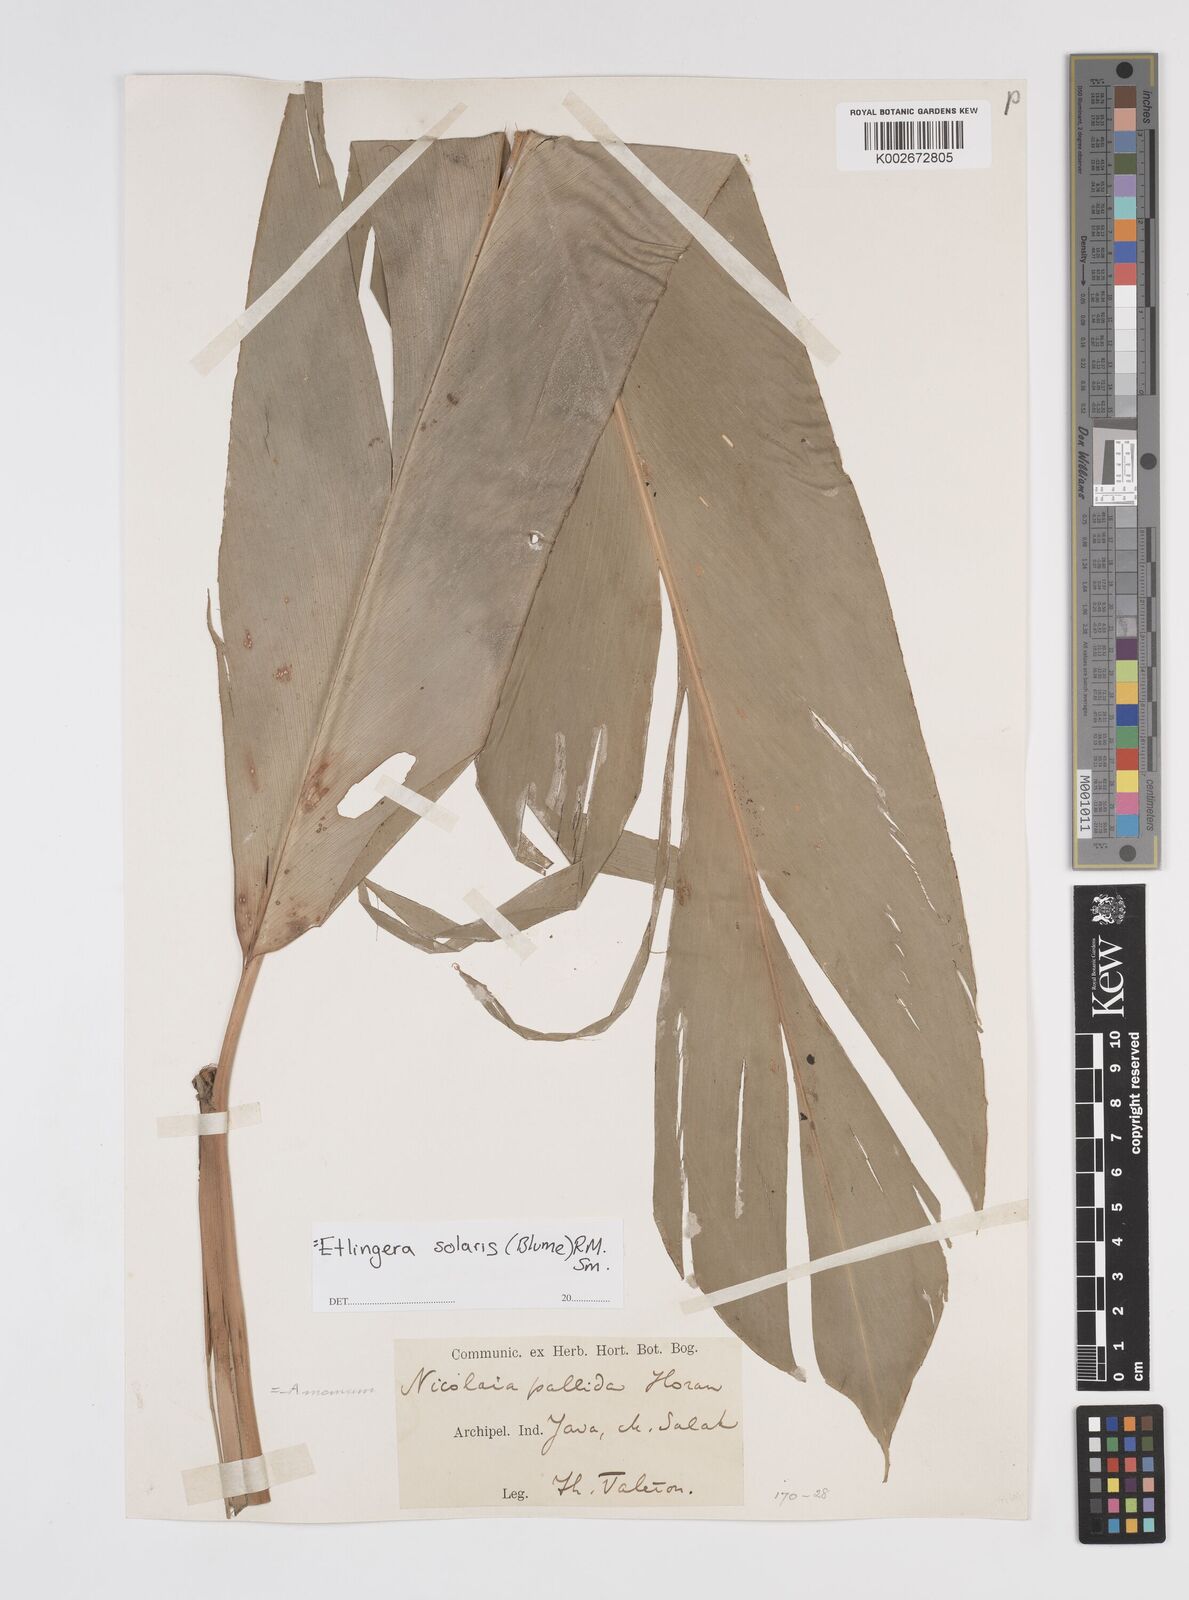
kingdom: Plantae
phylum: Tracheophyta
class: Liliopsida
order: Zingiberales
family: Zingiberaceae
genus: Etlingera
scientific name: Etlingera solaris
